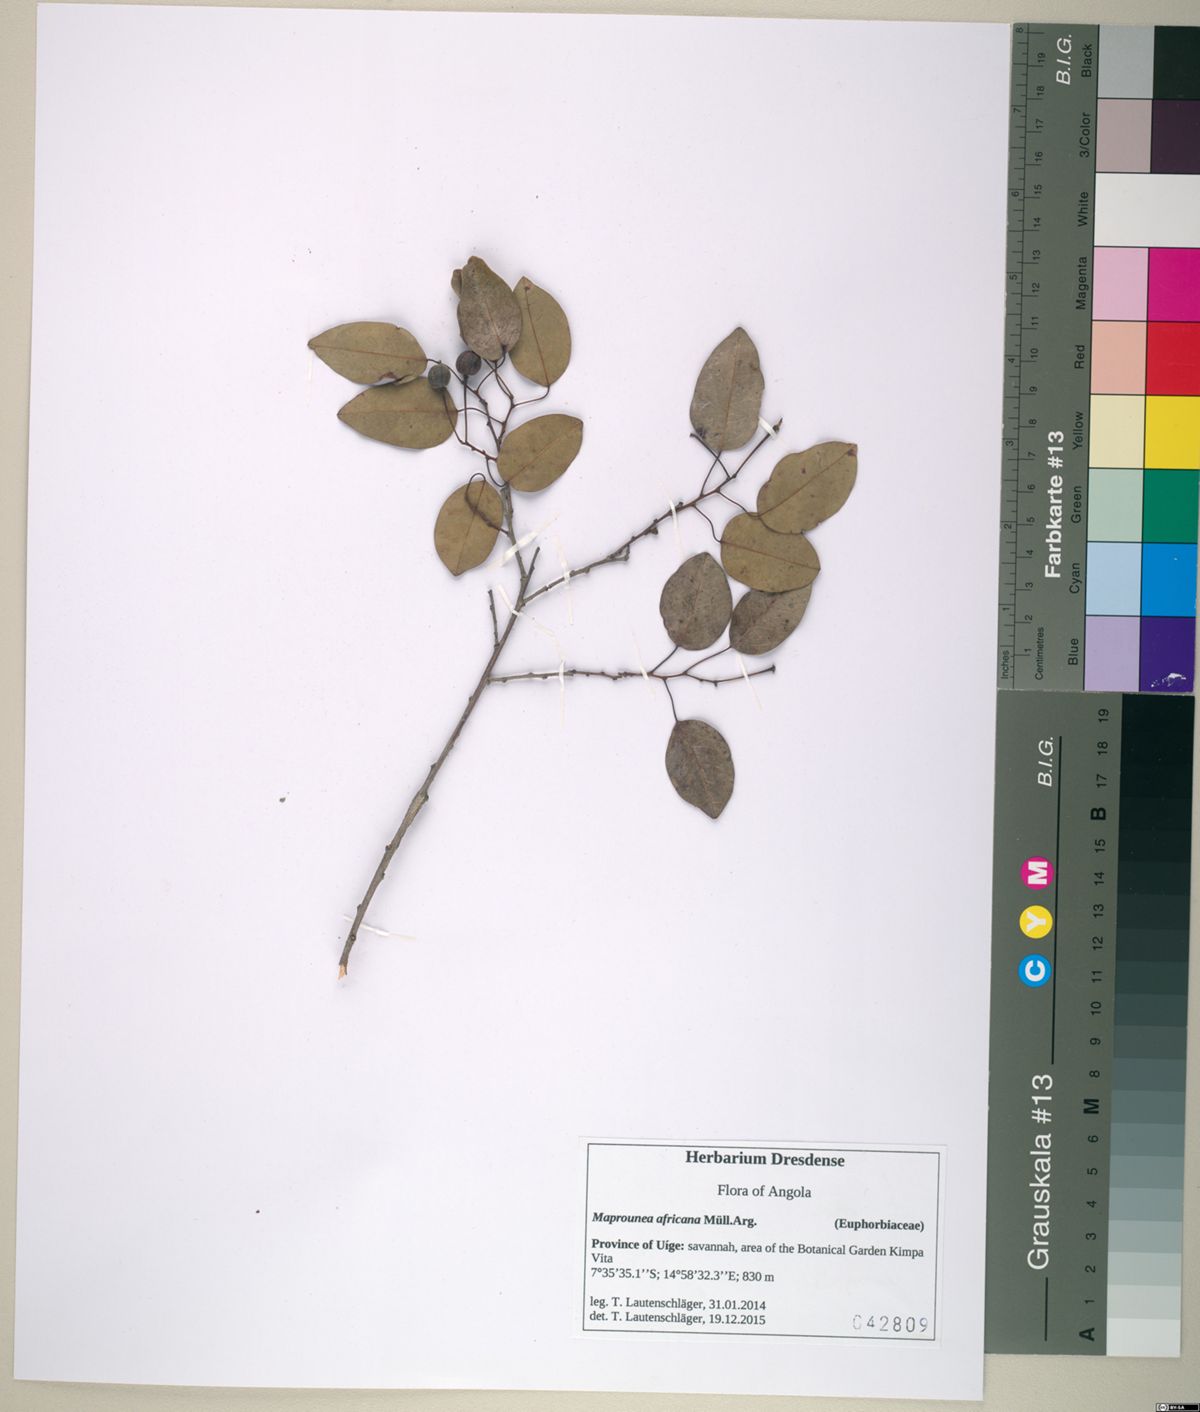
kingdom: Plantae
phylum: Tracheophyta
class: Magnoliopsida
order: Malpighiales
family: Euphorbiaceae
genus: Maprounea
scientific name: Maprounea africana
